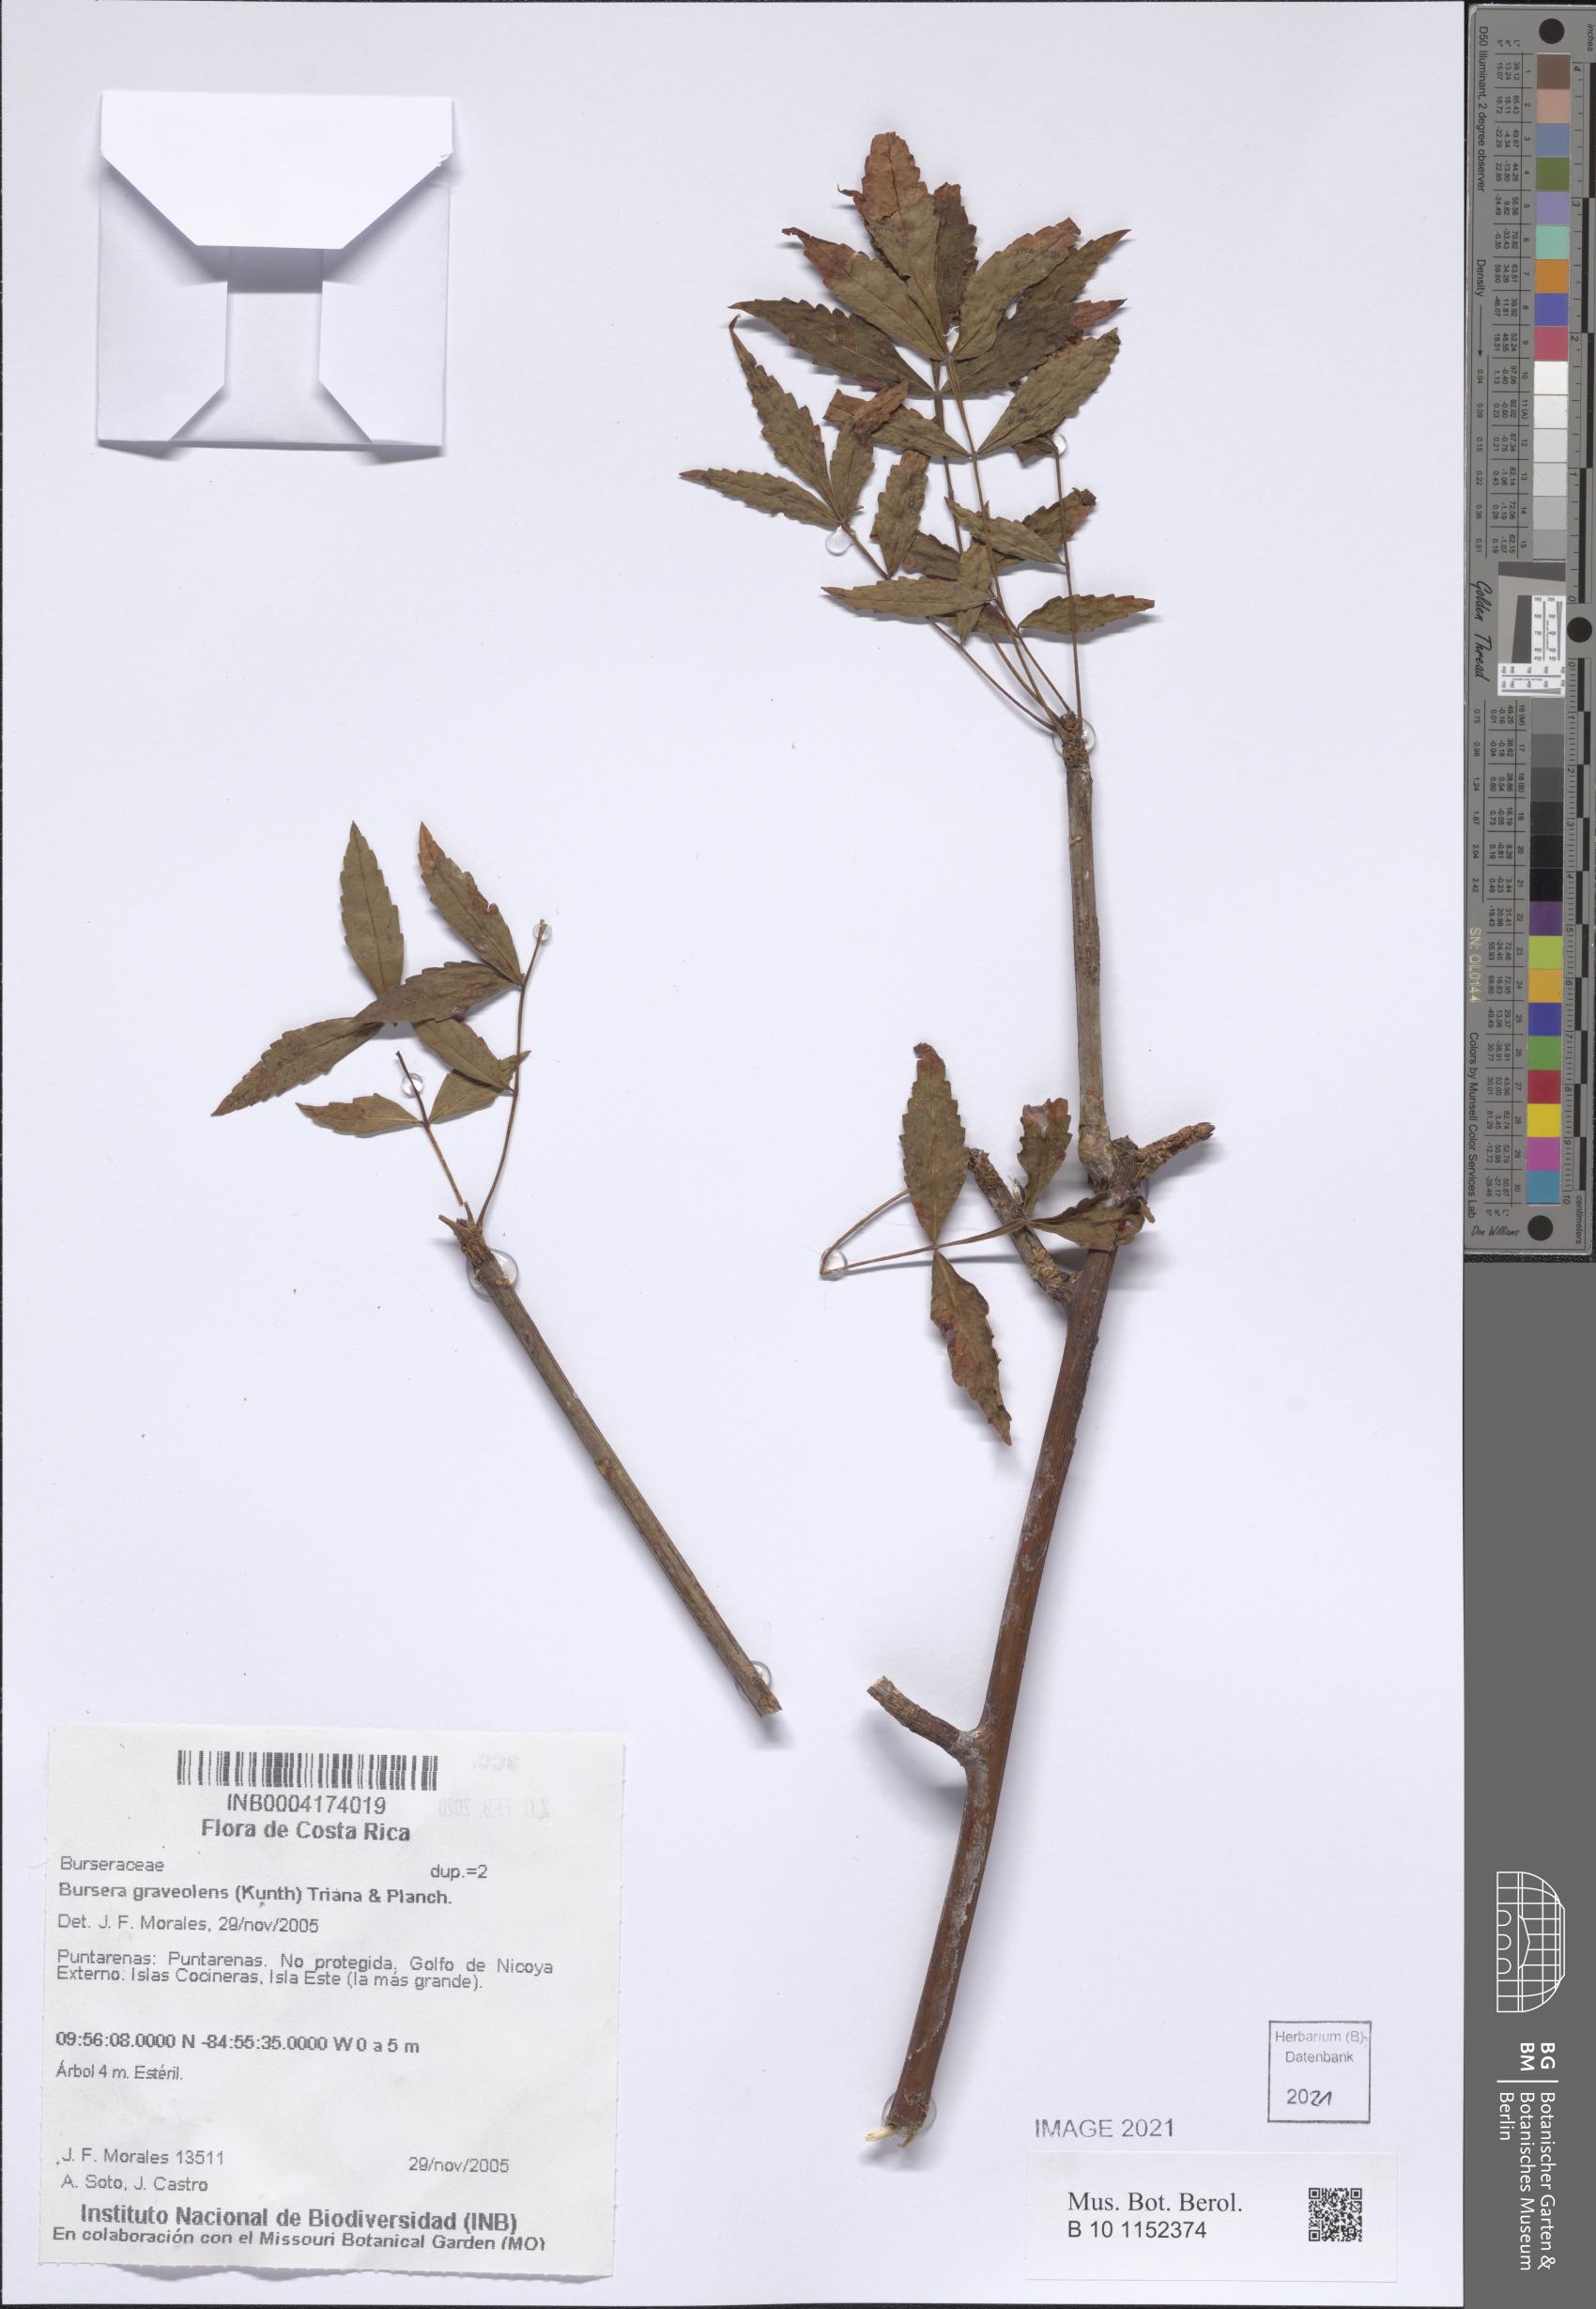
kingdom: Plantae
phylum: Tracheophyta
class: Magnoliopsida
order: Sapindales
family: Burseraceae
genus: Bursera
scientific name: Bursera graveolens
